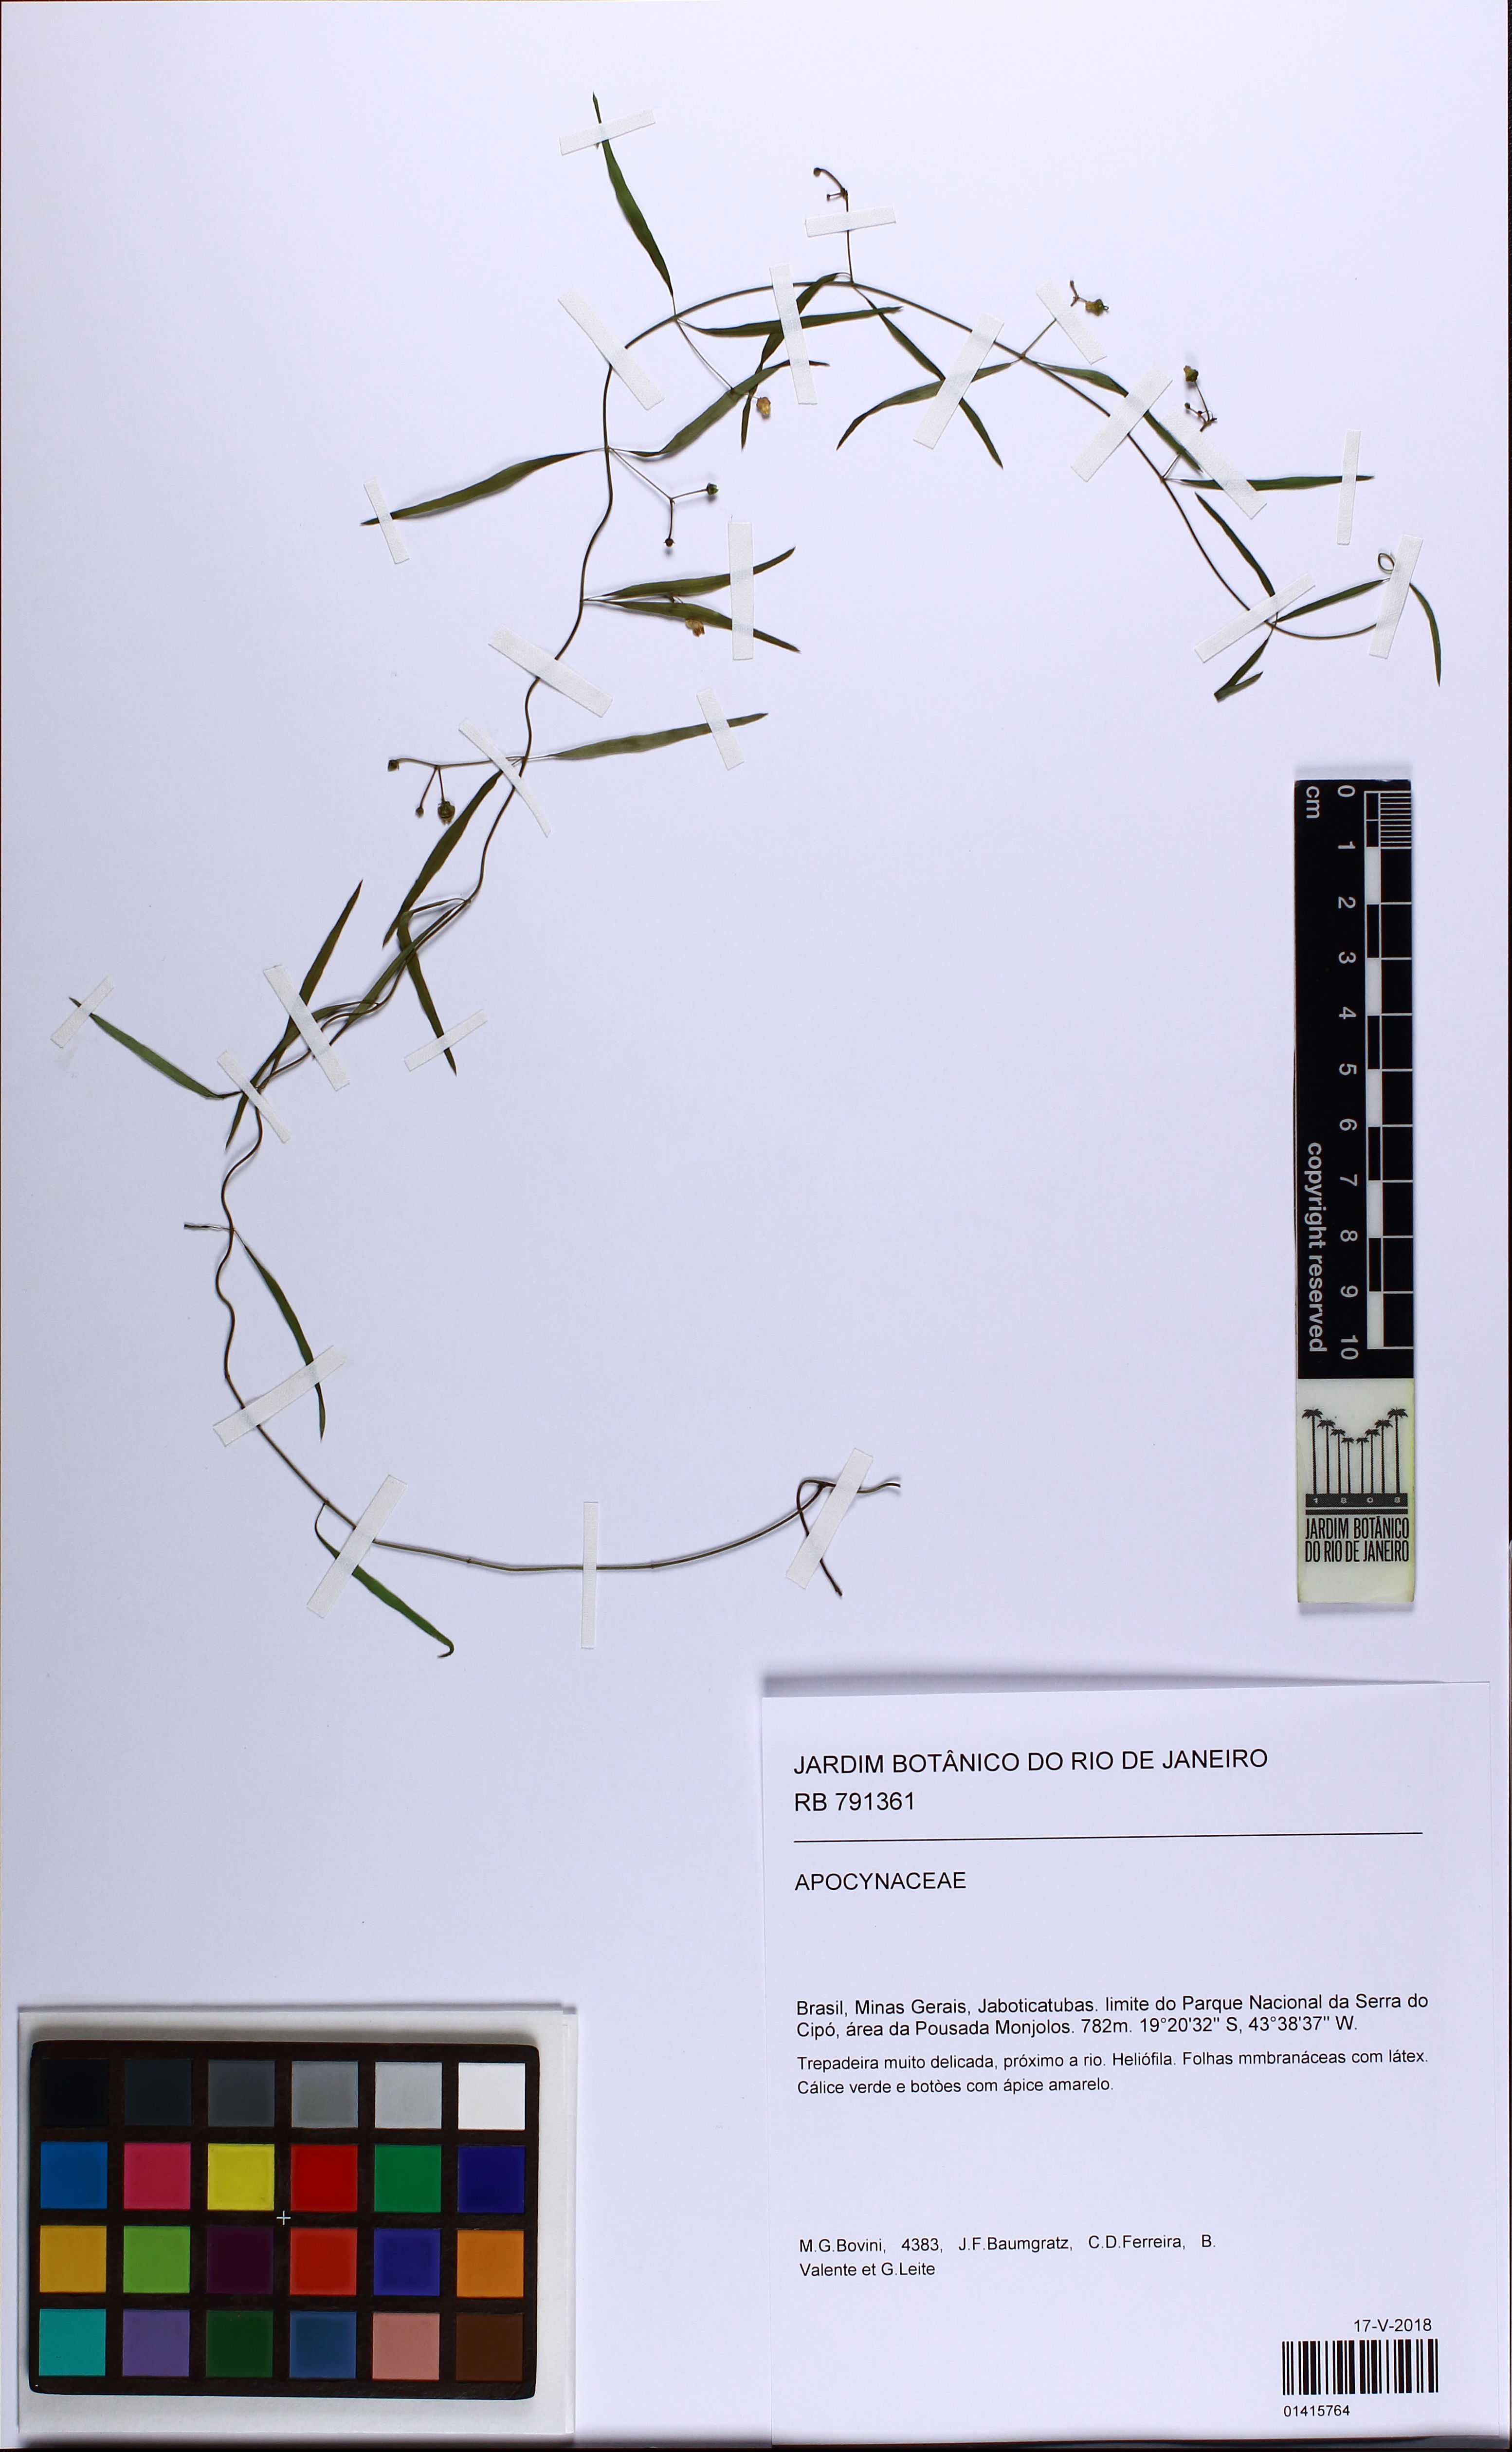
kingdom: Plantae
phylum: Tracheophyta
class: Magnoliopsida
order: Gentianales
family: Apocynaceae
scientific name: Apocynaceae
